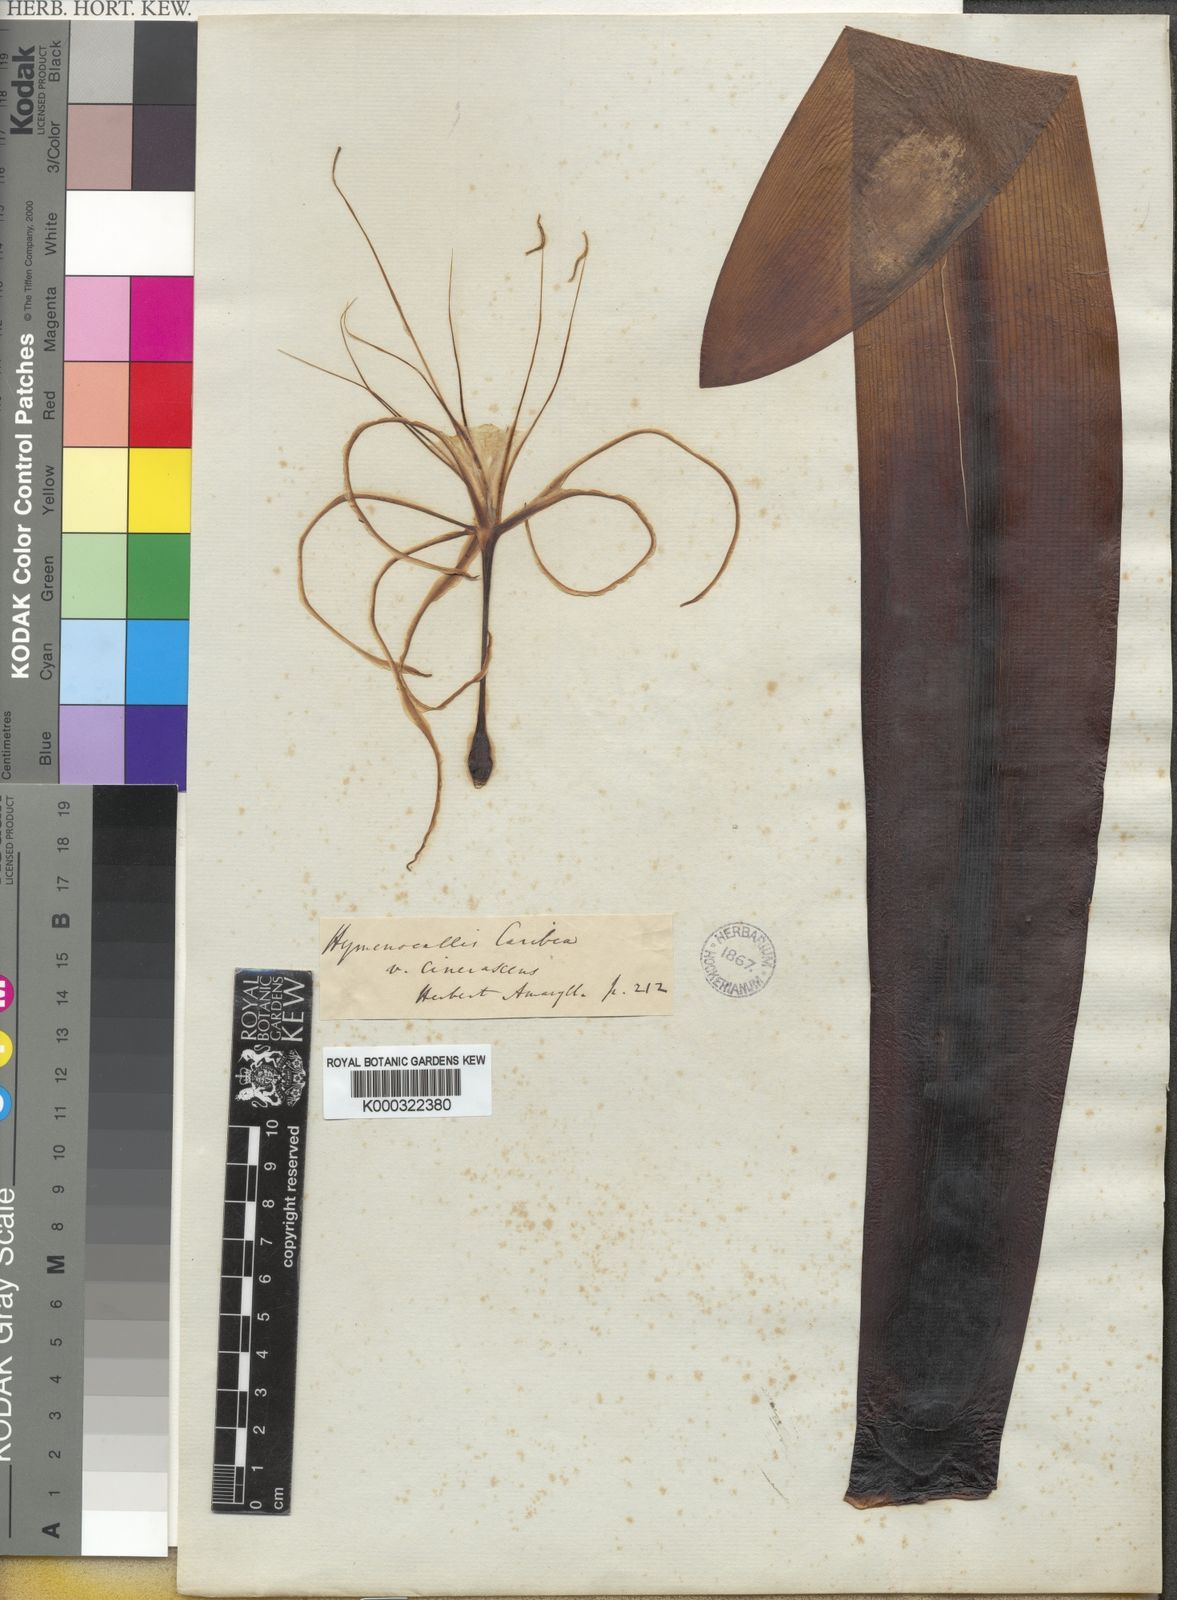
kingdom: Plantae
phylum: Tracheophyta
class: Liliopsida
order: Asparagales
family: Amaryllidaceae
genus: Hymenocallis
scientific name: Hymenocallis caribaea
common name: White-lily
